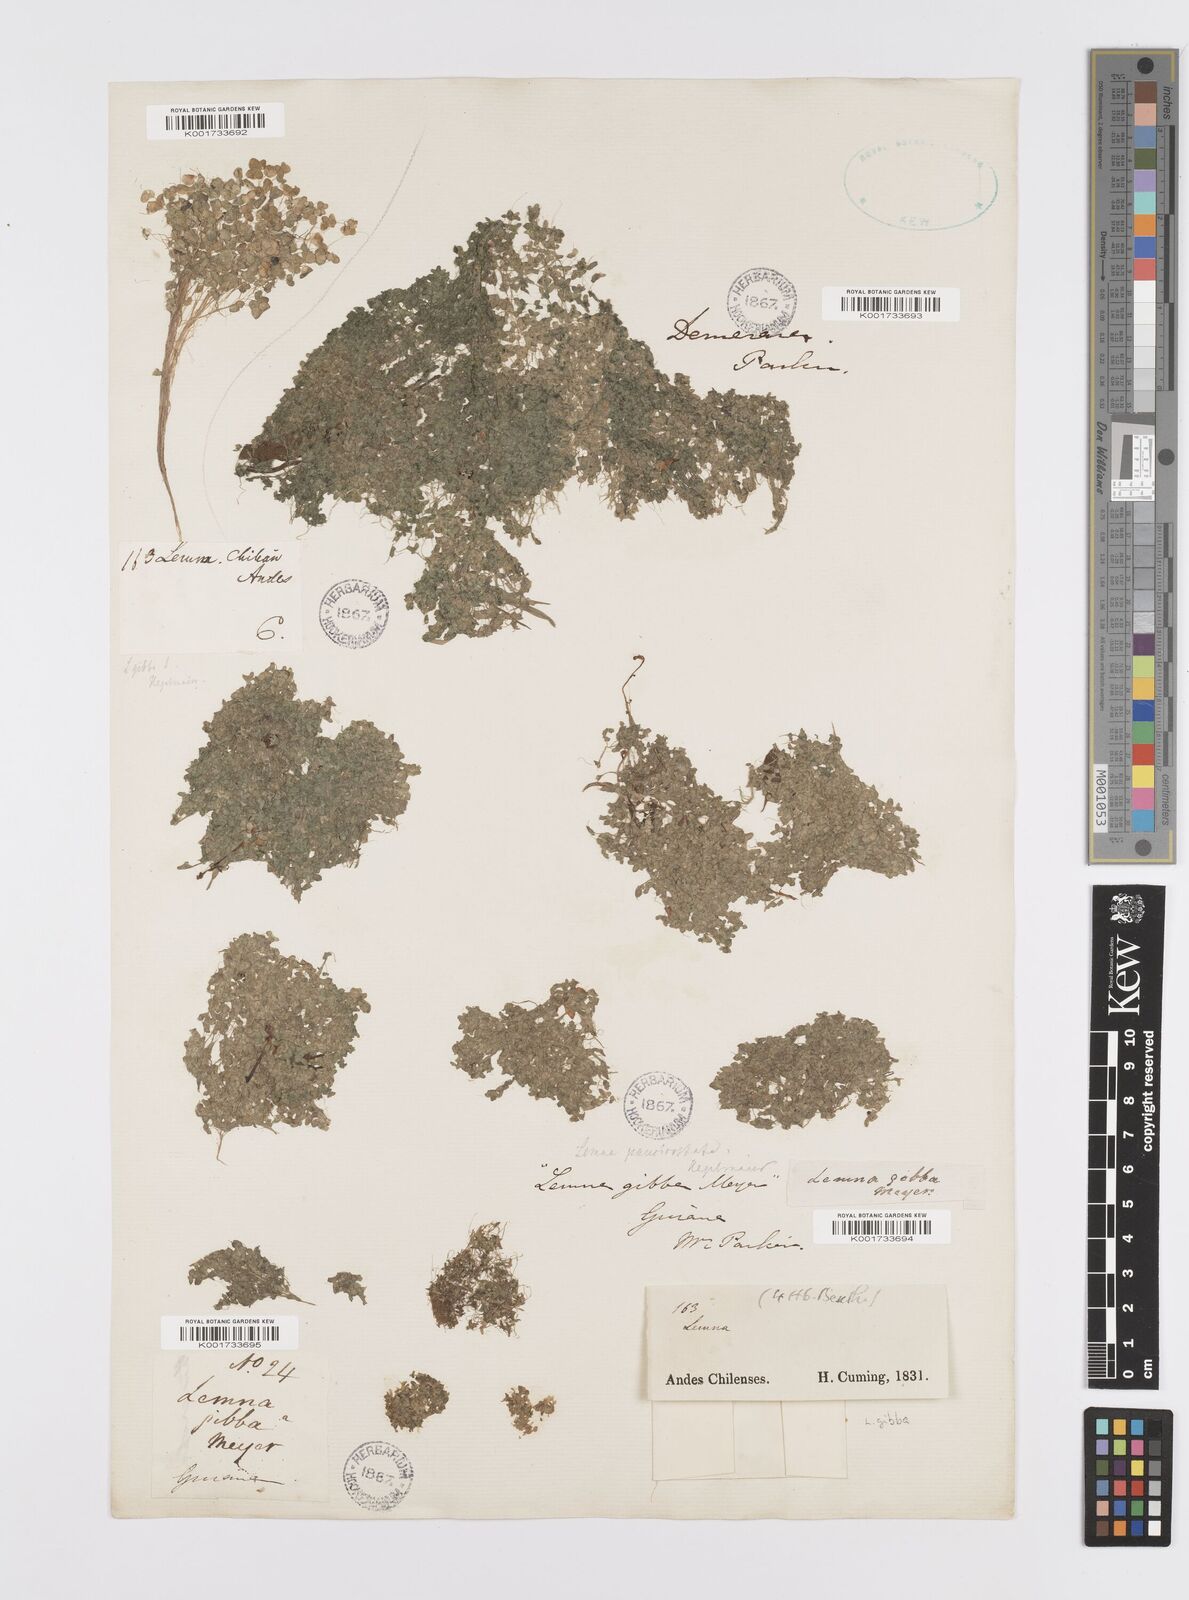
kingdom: Plantae
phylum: Tracheophyta
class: Liliopsida
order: Alismatales
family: Araceae
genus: Lemna
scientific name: Lemna gibba
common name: Fat duckweed
